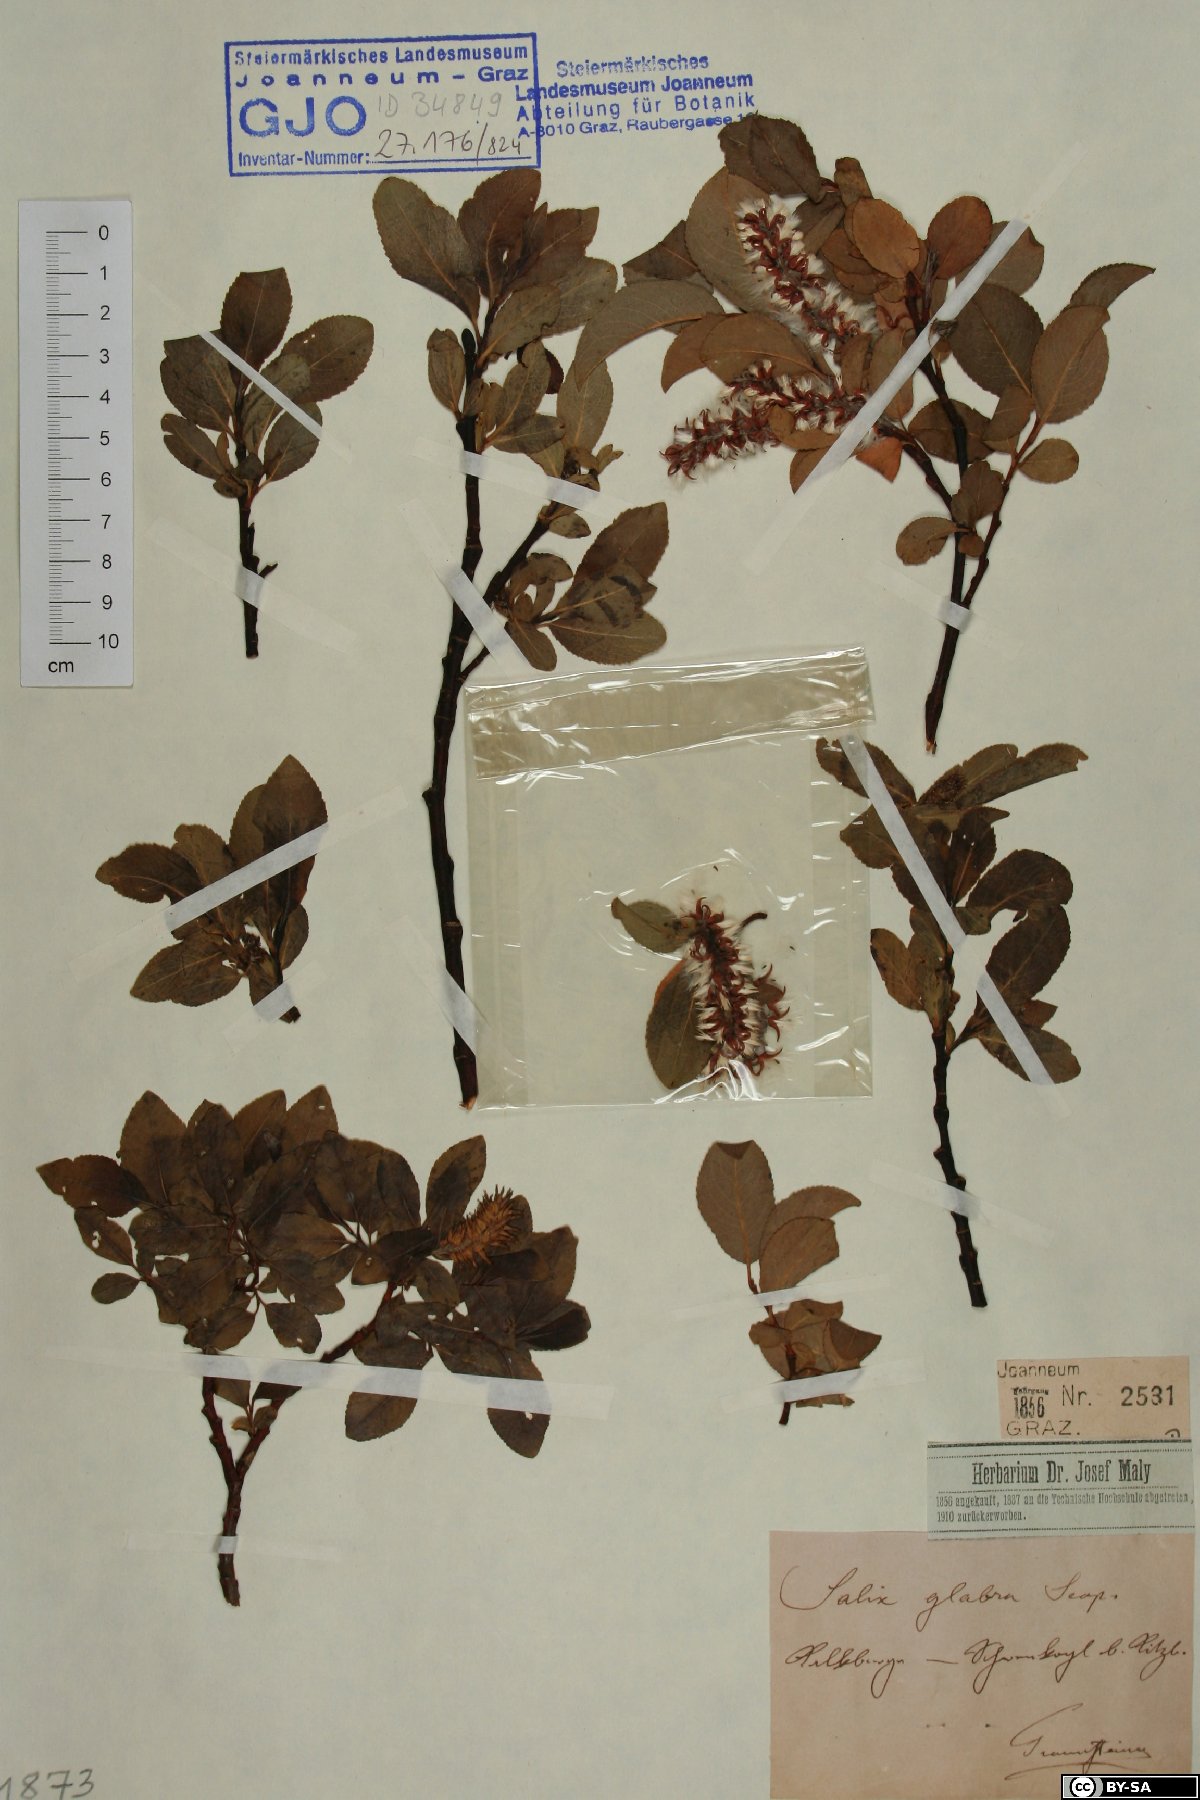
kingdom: Plantae
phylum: Tracheophyta
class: Magnoliopsida
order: Malpighiales
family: Salicaceae
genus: Salix
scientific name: Salix glabra
